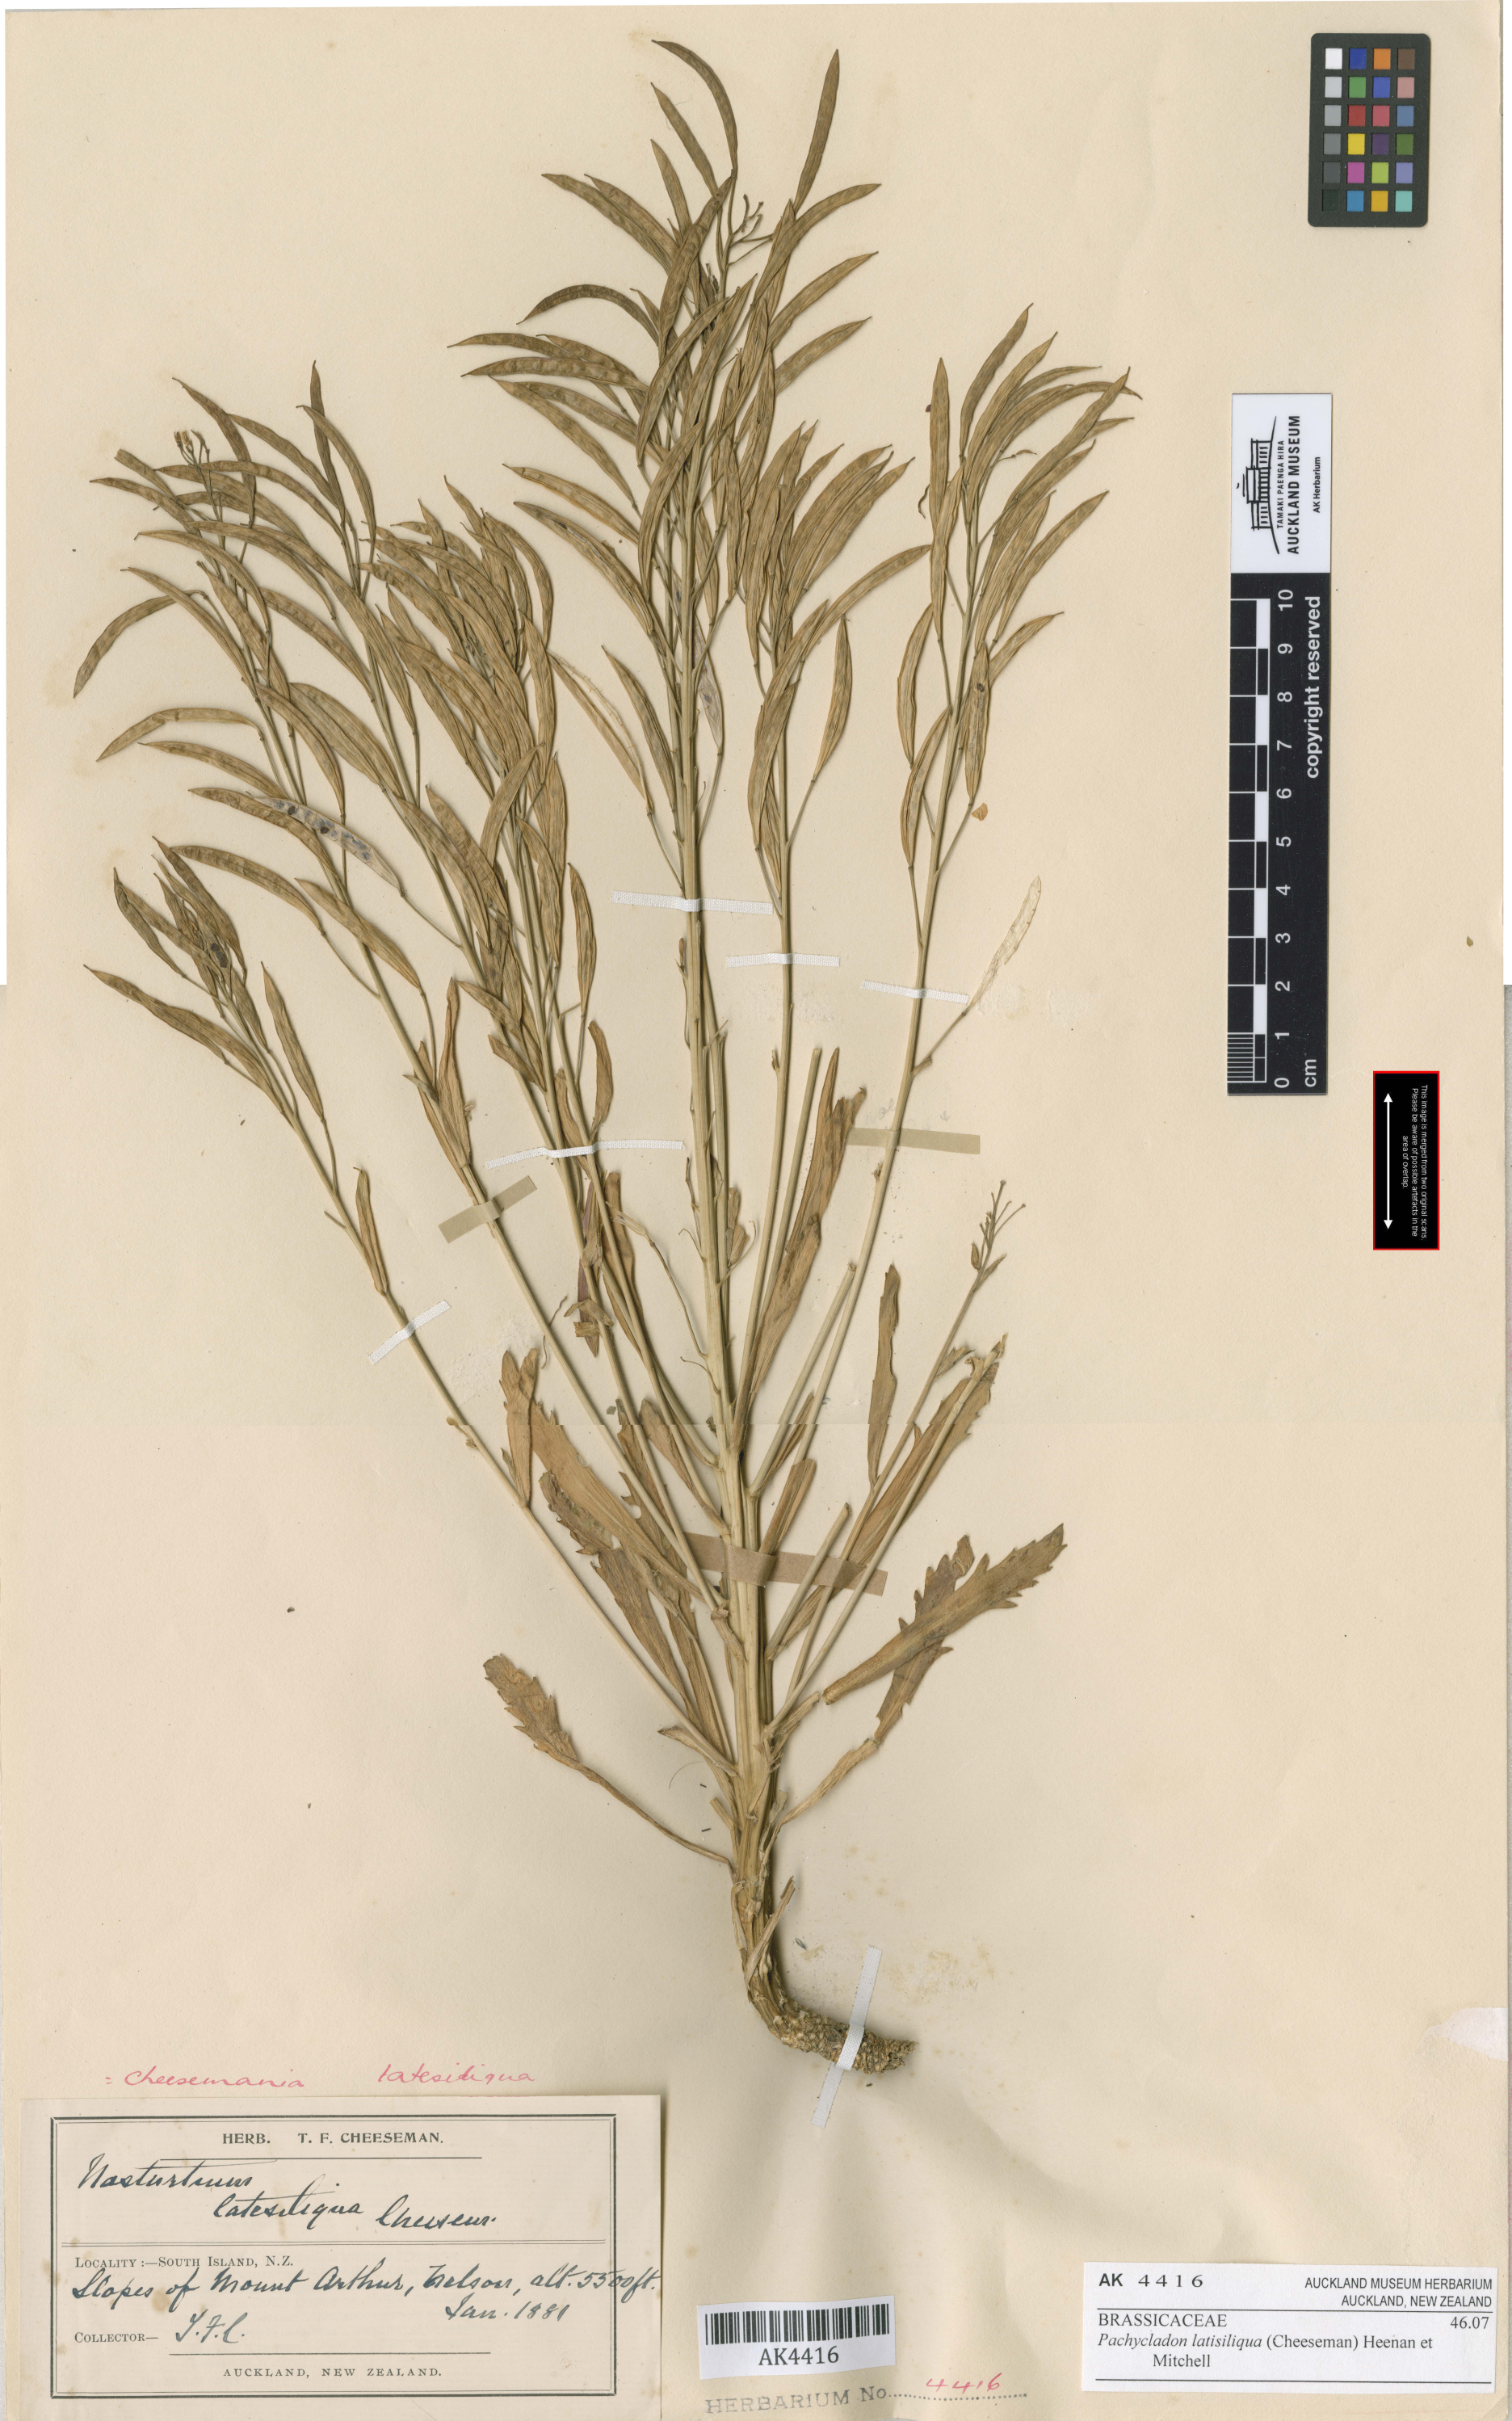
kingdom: Plantae
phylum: Tracheophyta
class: Magnoliopsida
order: Brassicales
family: Brassicaceae
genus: Pachycladon
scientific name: Pachycladon latisiliquum
